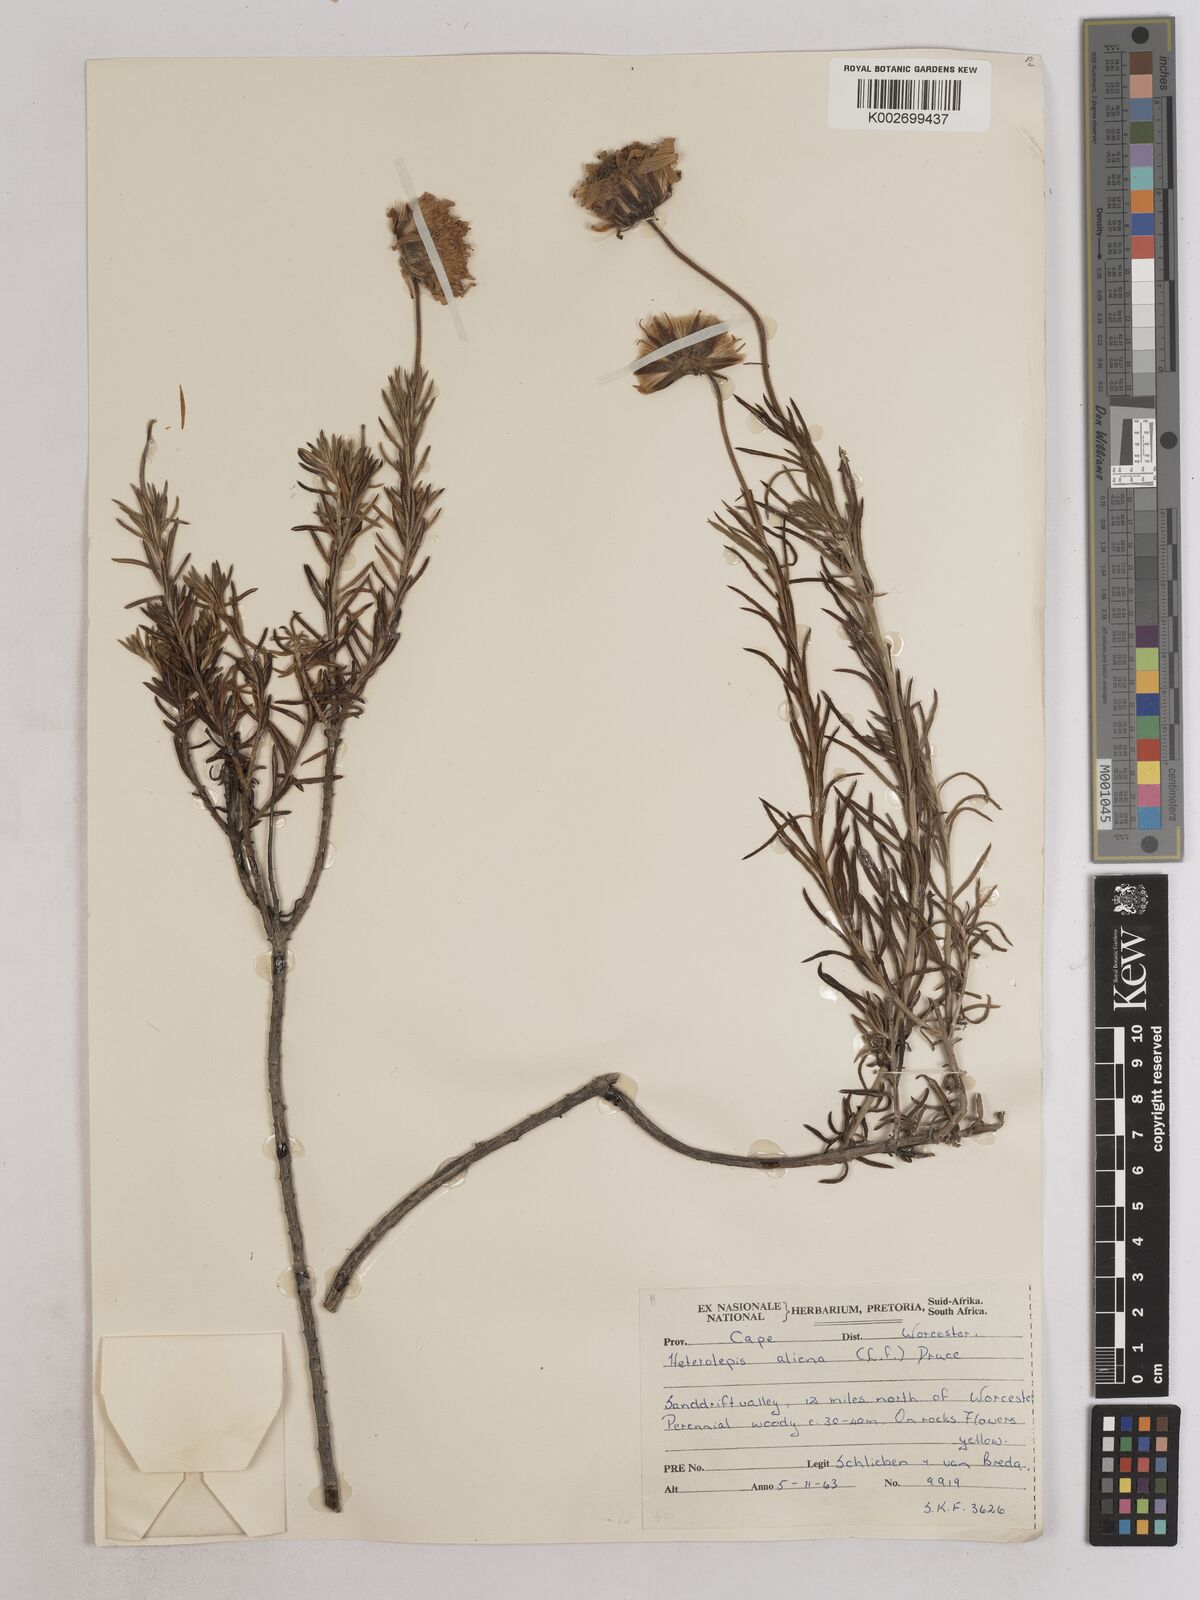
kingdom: Plantae
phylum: Tracheophyta
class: Magnoliopsida
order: Asterales
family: Asteraceae
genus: Heterolepis
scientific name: Heterolepis aliena
